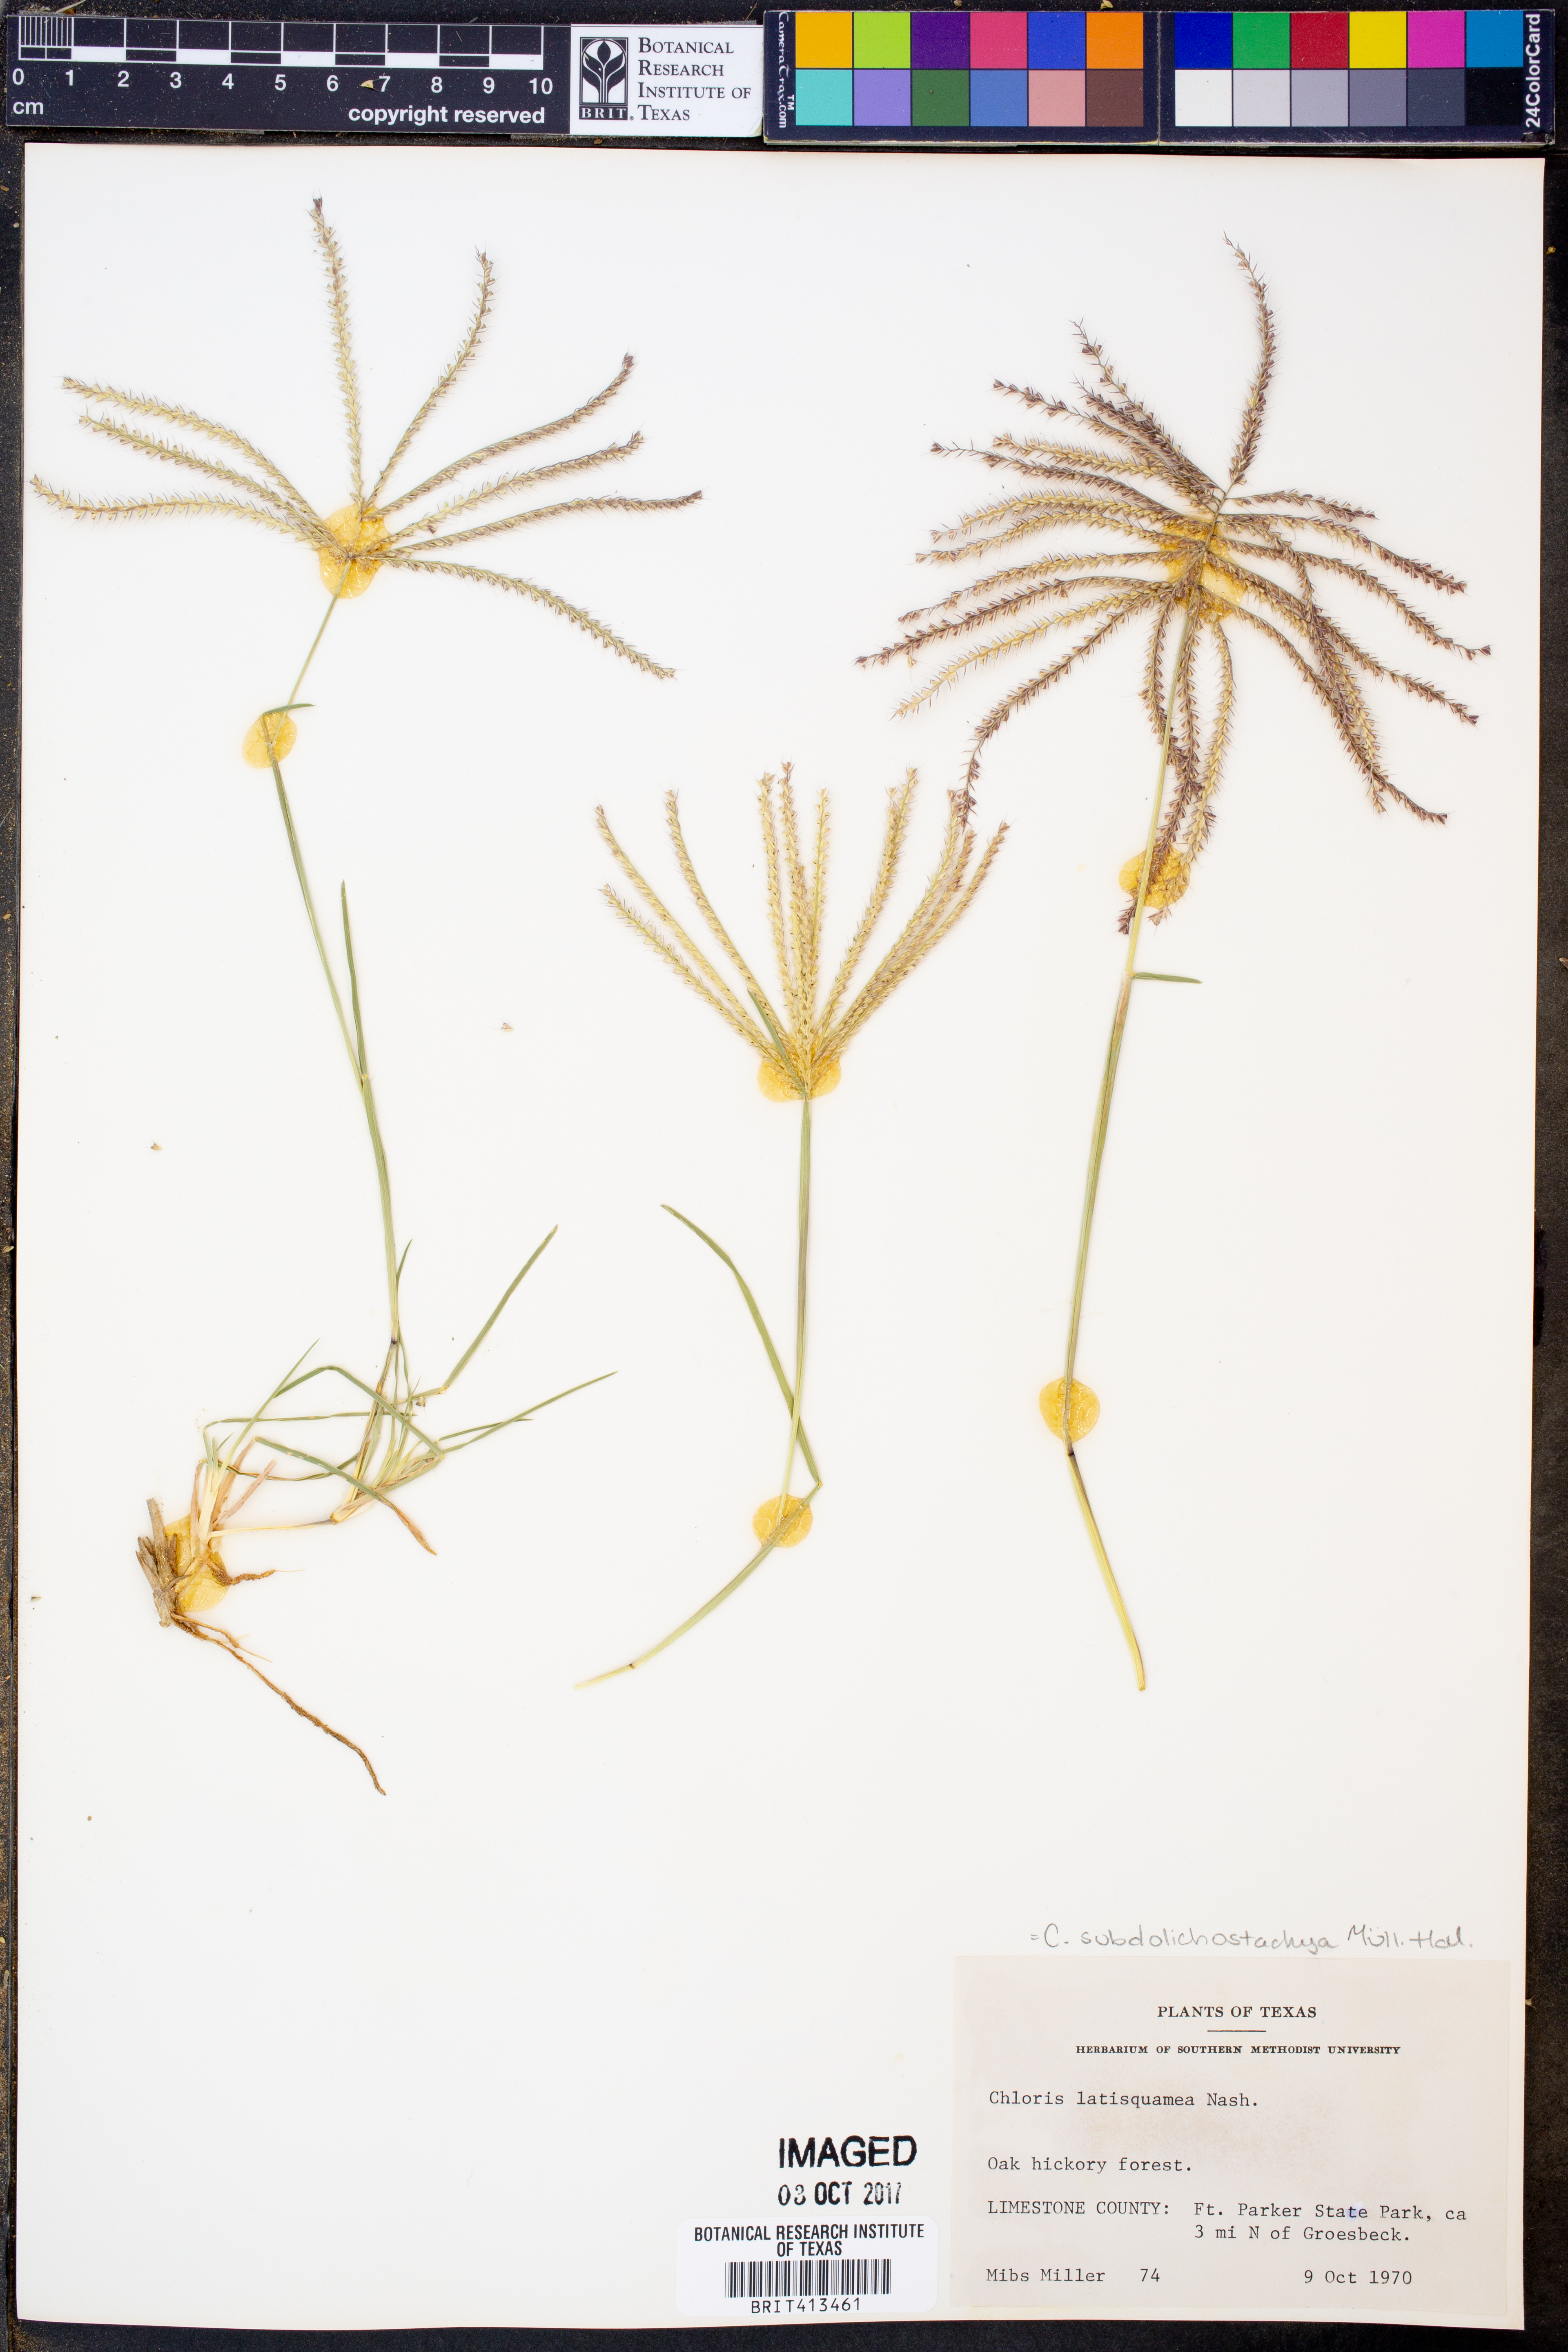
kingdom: Plantae
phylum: Tracheophyta
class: Liliopsida
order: Poales
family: Poaceae
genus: Chloris
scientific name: Chloris subdolichostachya
